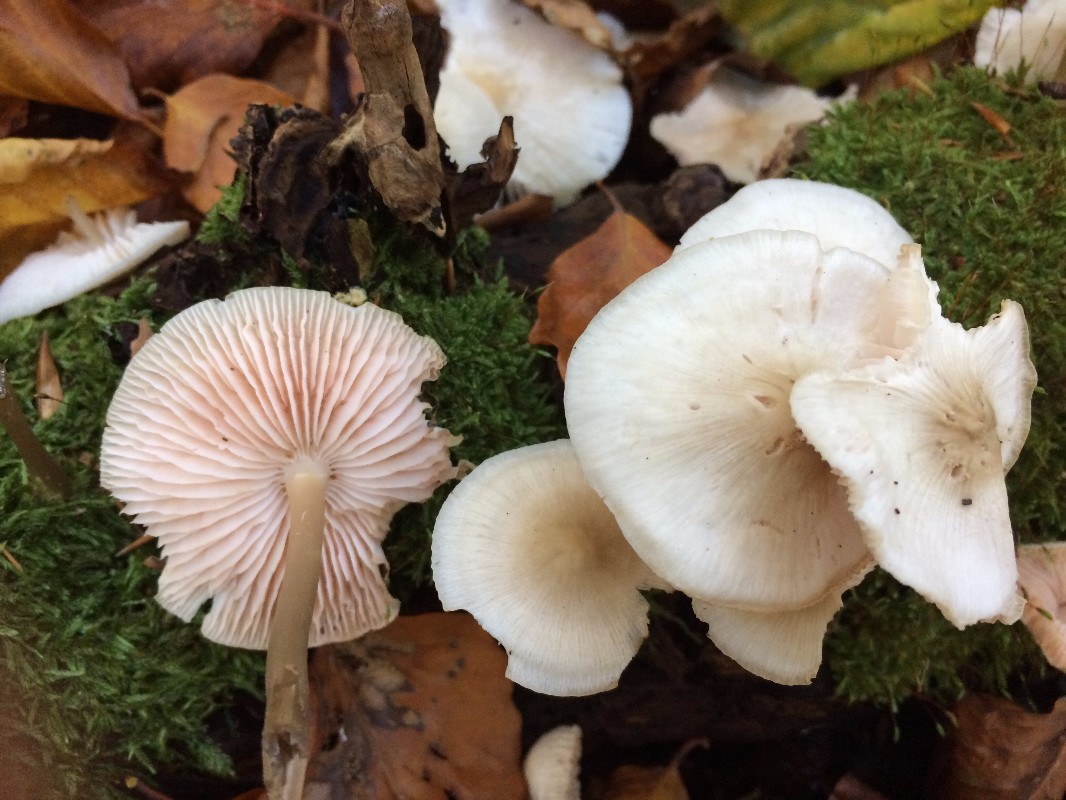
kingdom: Fungi
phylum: Basidiomycota
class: Agaricomycetes
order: Agaricales
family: Mycenaceae
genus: Mycena
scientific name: Mycena galericulata
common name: Bonnet mycena
